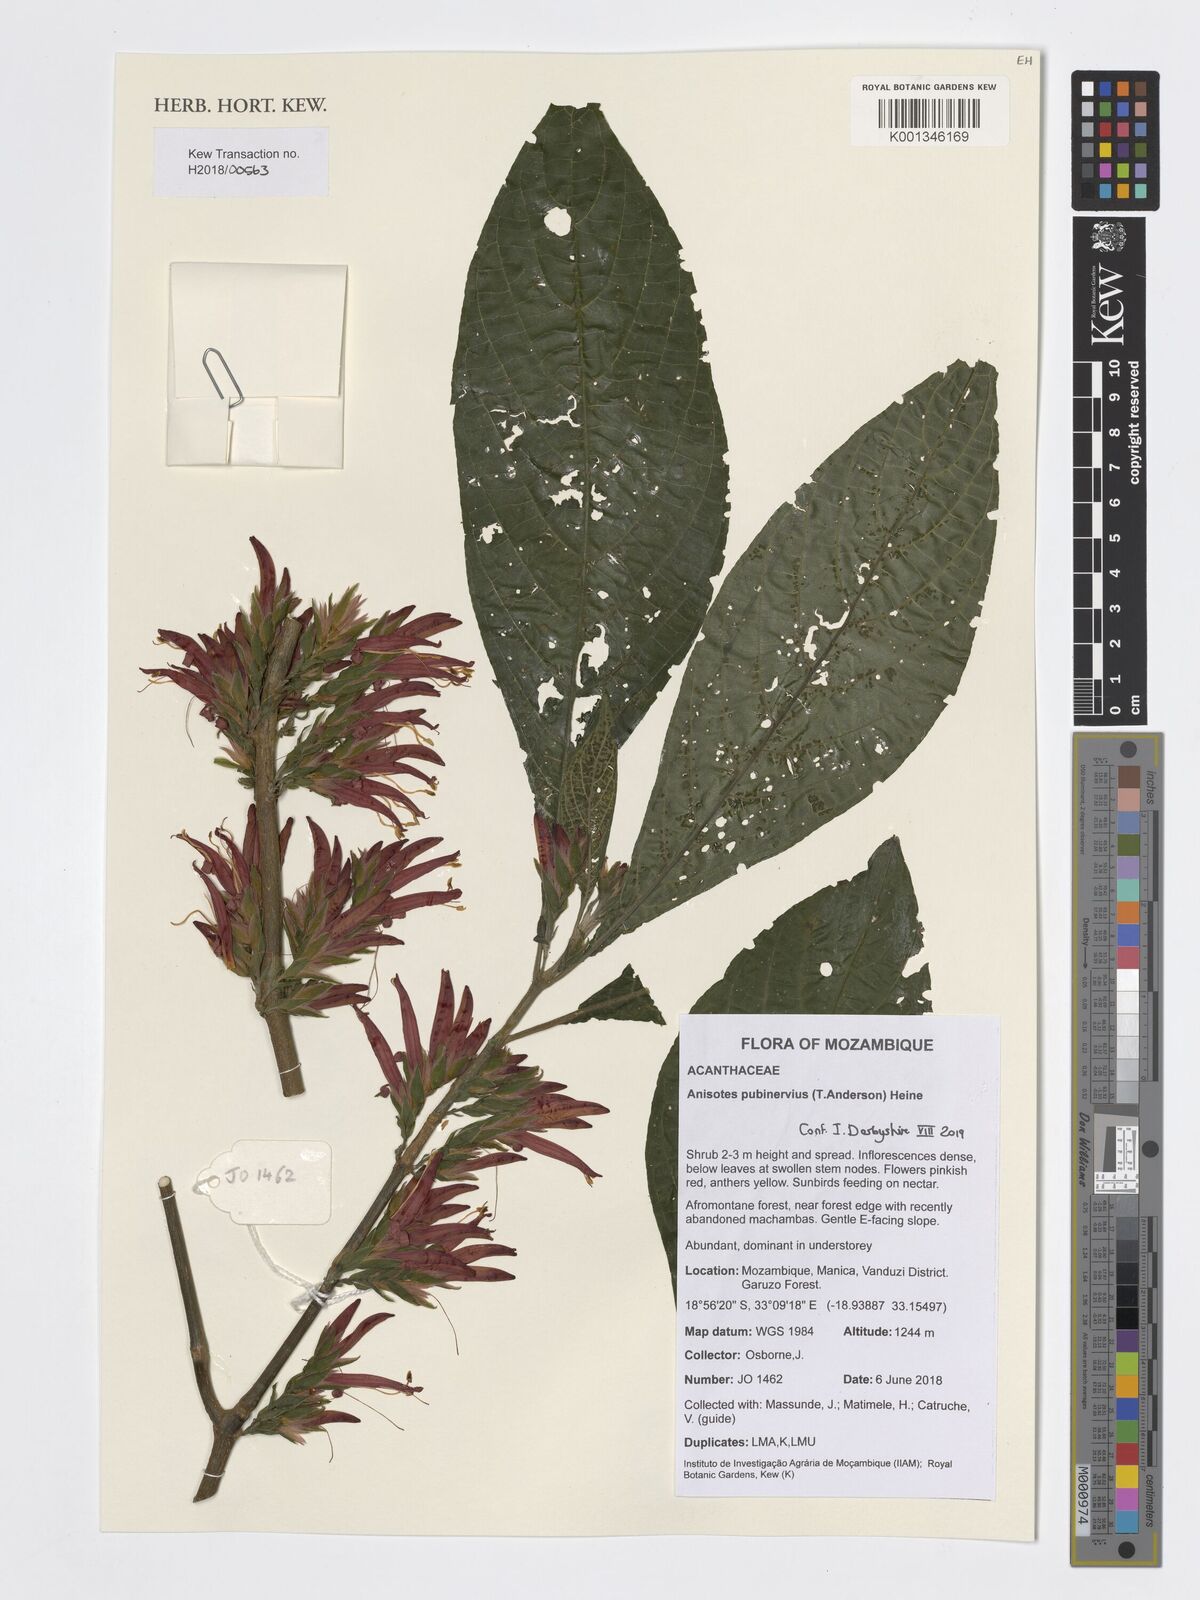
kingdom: Plantae
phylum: Tracheophyta
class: Magnoliopsida
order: Lamiales
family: Acanthaceae
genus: Metarungia
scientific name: Metarungia pubinervia
